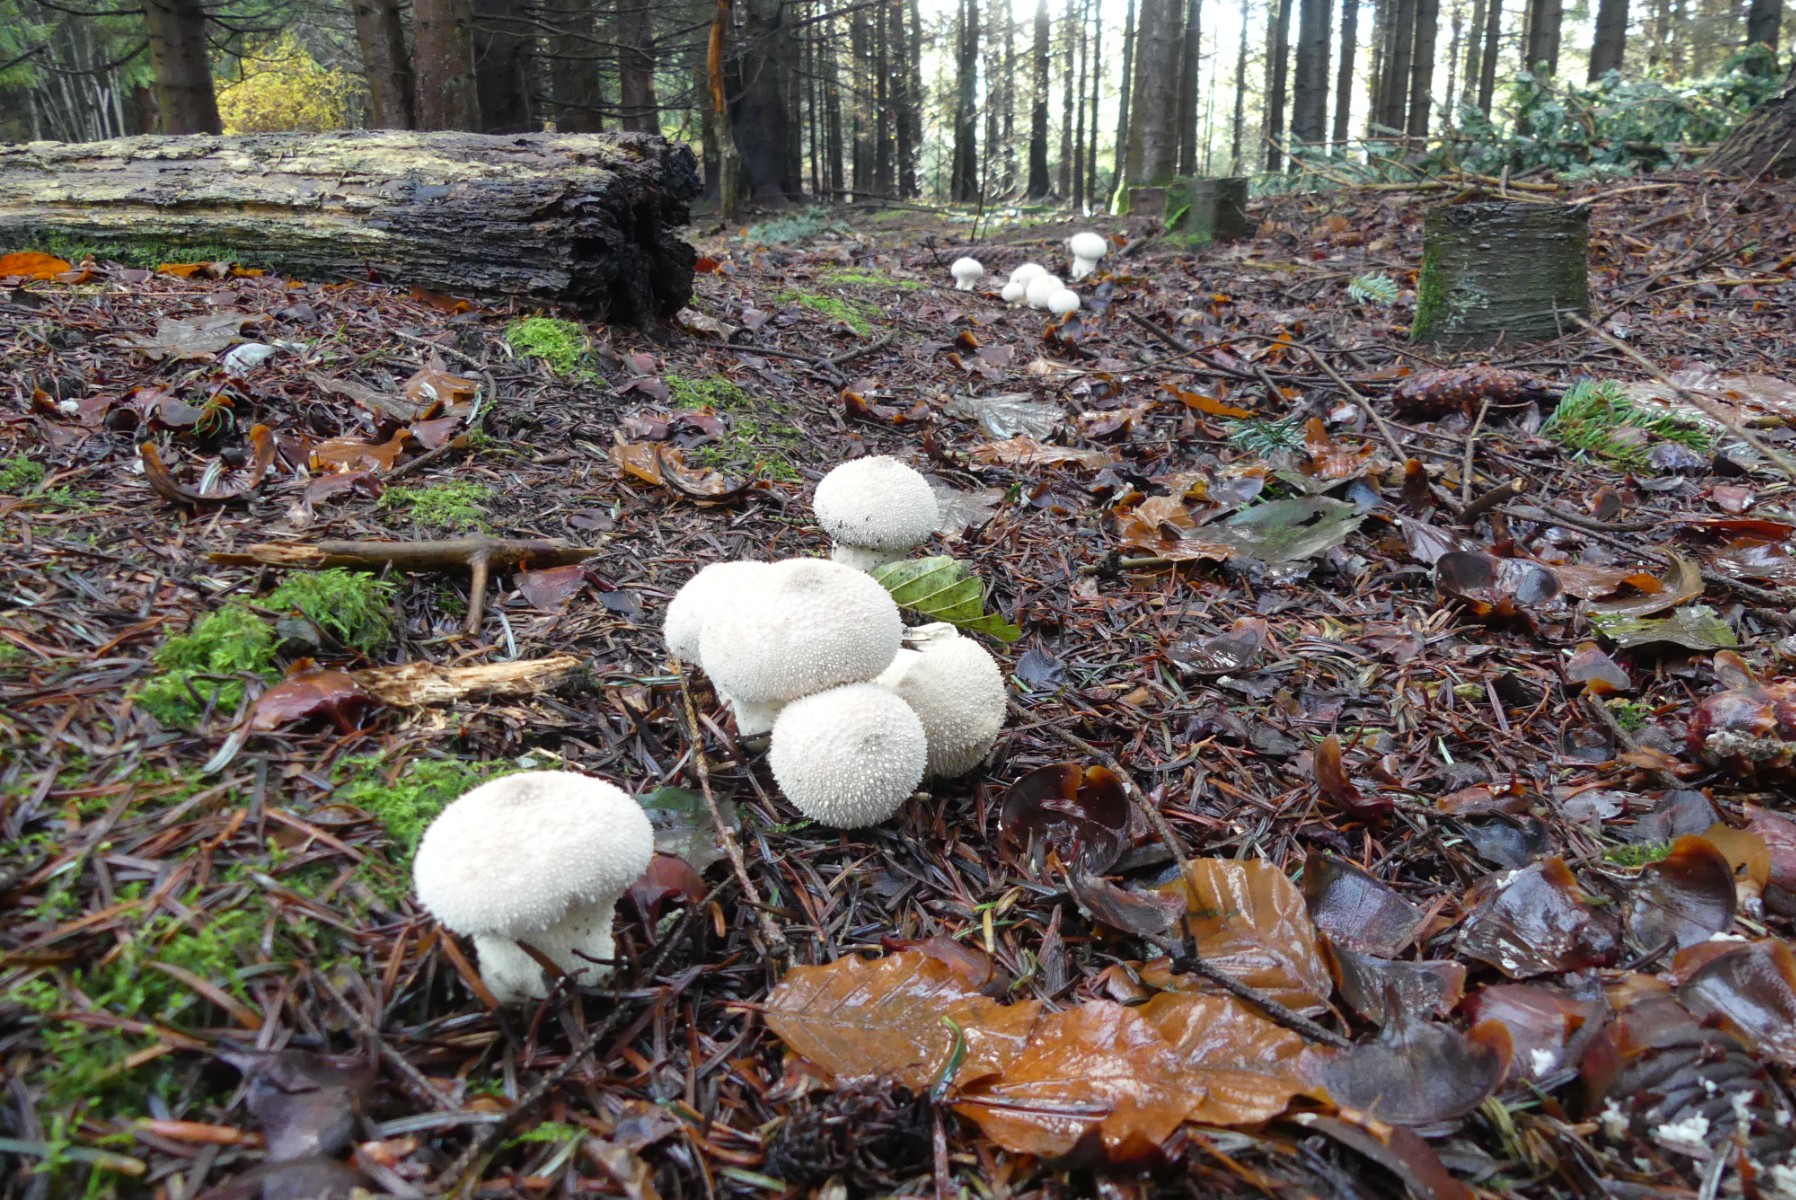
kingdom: Fungi
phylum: Basidiomycota
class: Agaricomycetes
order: Agaricales
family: Lycoperdaceae
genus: Lycoperdon
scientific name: Lycoperdon perlatum
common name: krystal-støvbold
